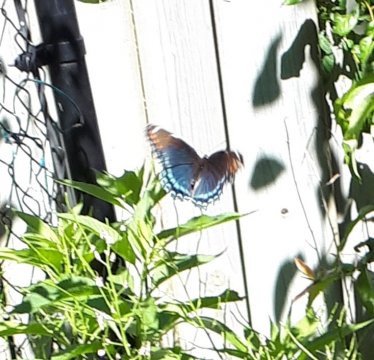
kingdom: Animalia
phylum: Arthropoda
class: Insecta
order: Lepidoptera
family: Nymphalidae
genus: Limenitis
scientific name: Limenitis arthemis
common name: Red-spotted Admiral
